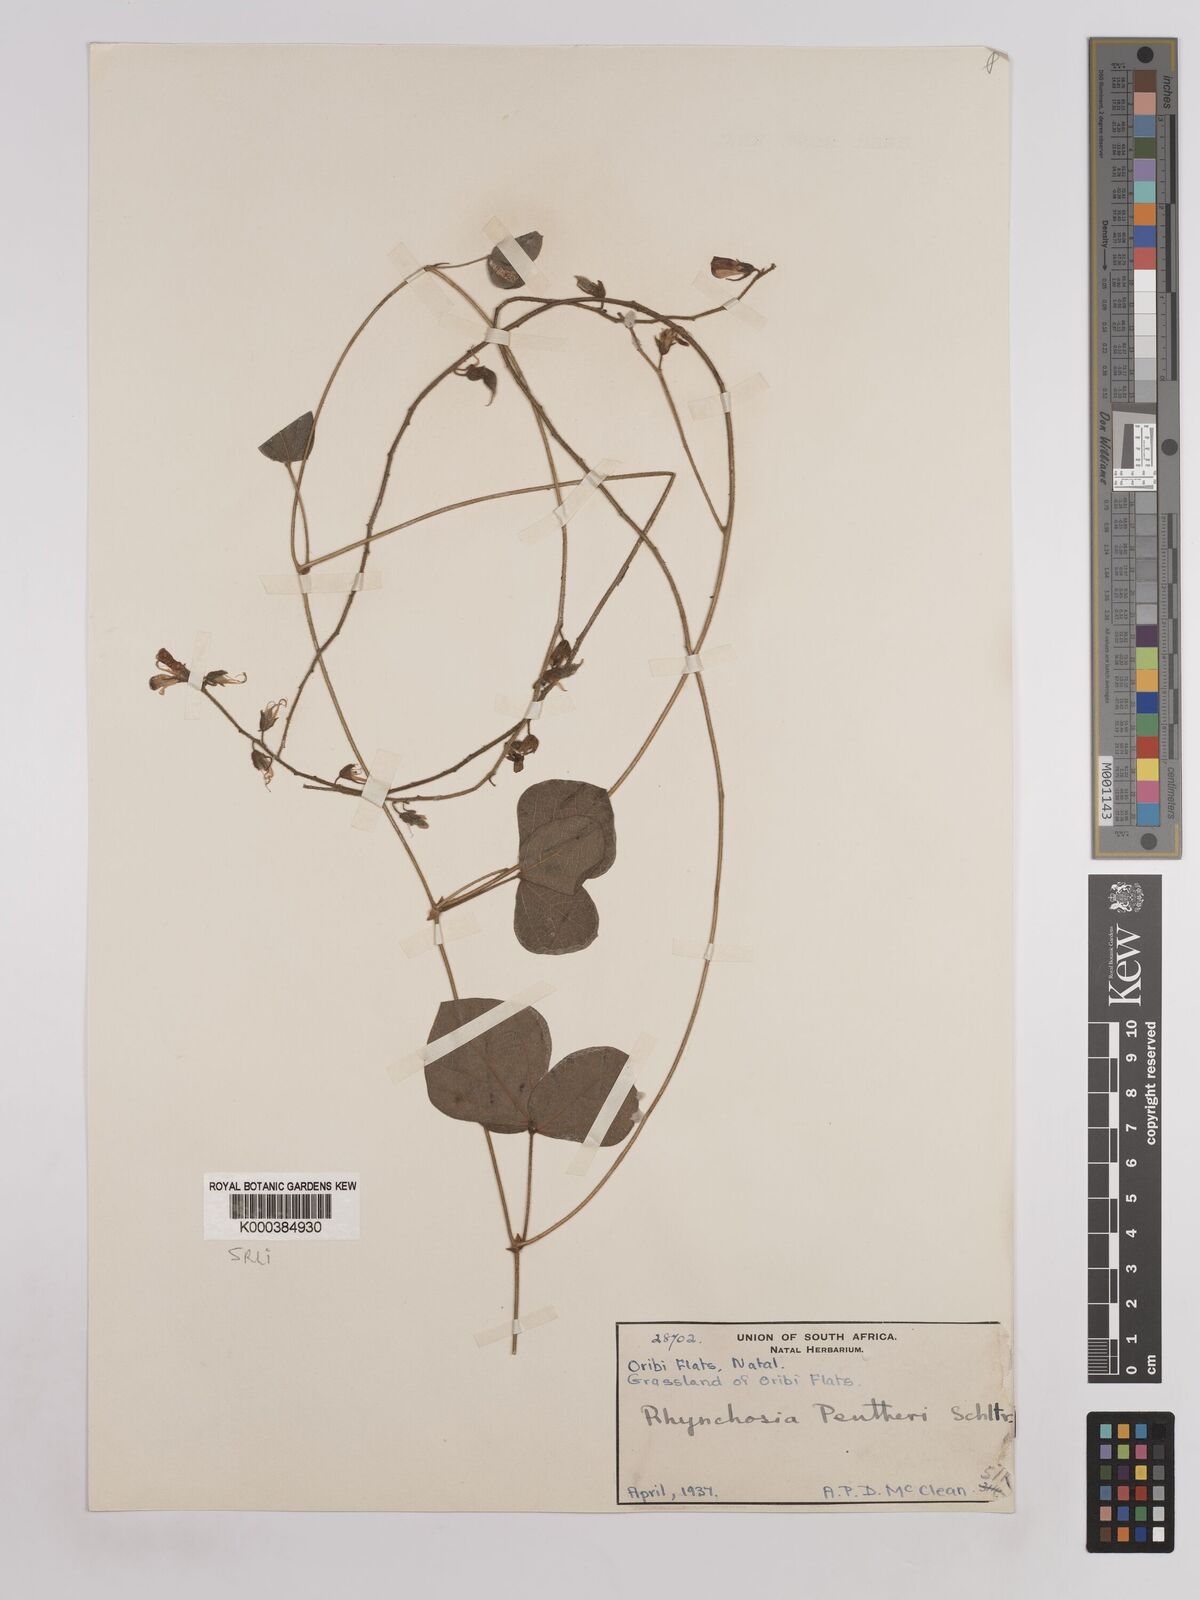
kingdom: Plantae
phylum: Tracheophyta
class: Magnoliopsida
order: Fabales
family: Fabaceae
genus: Rhynchosia
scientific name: Rhynchosia pentheri
